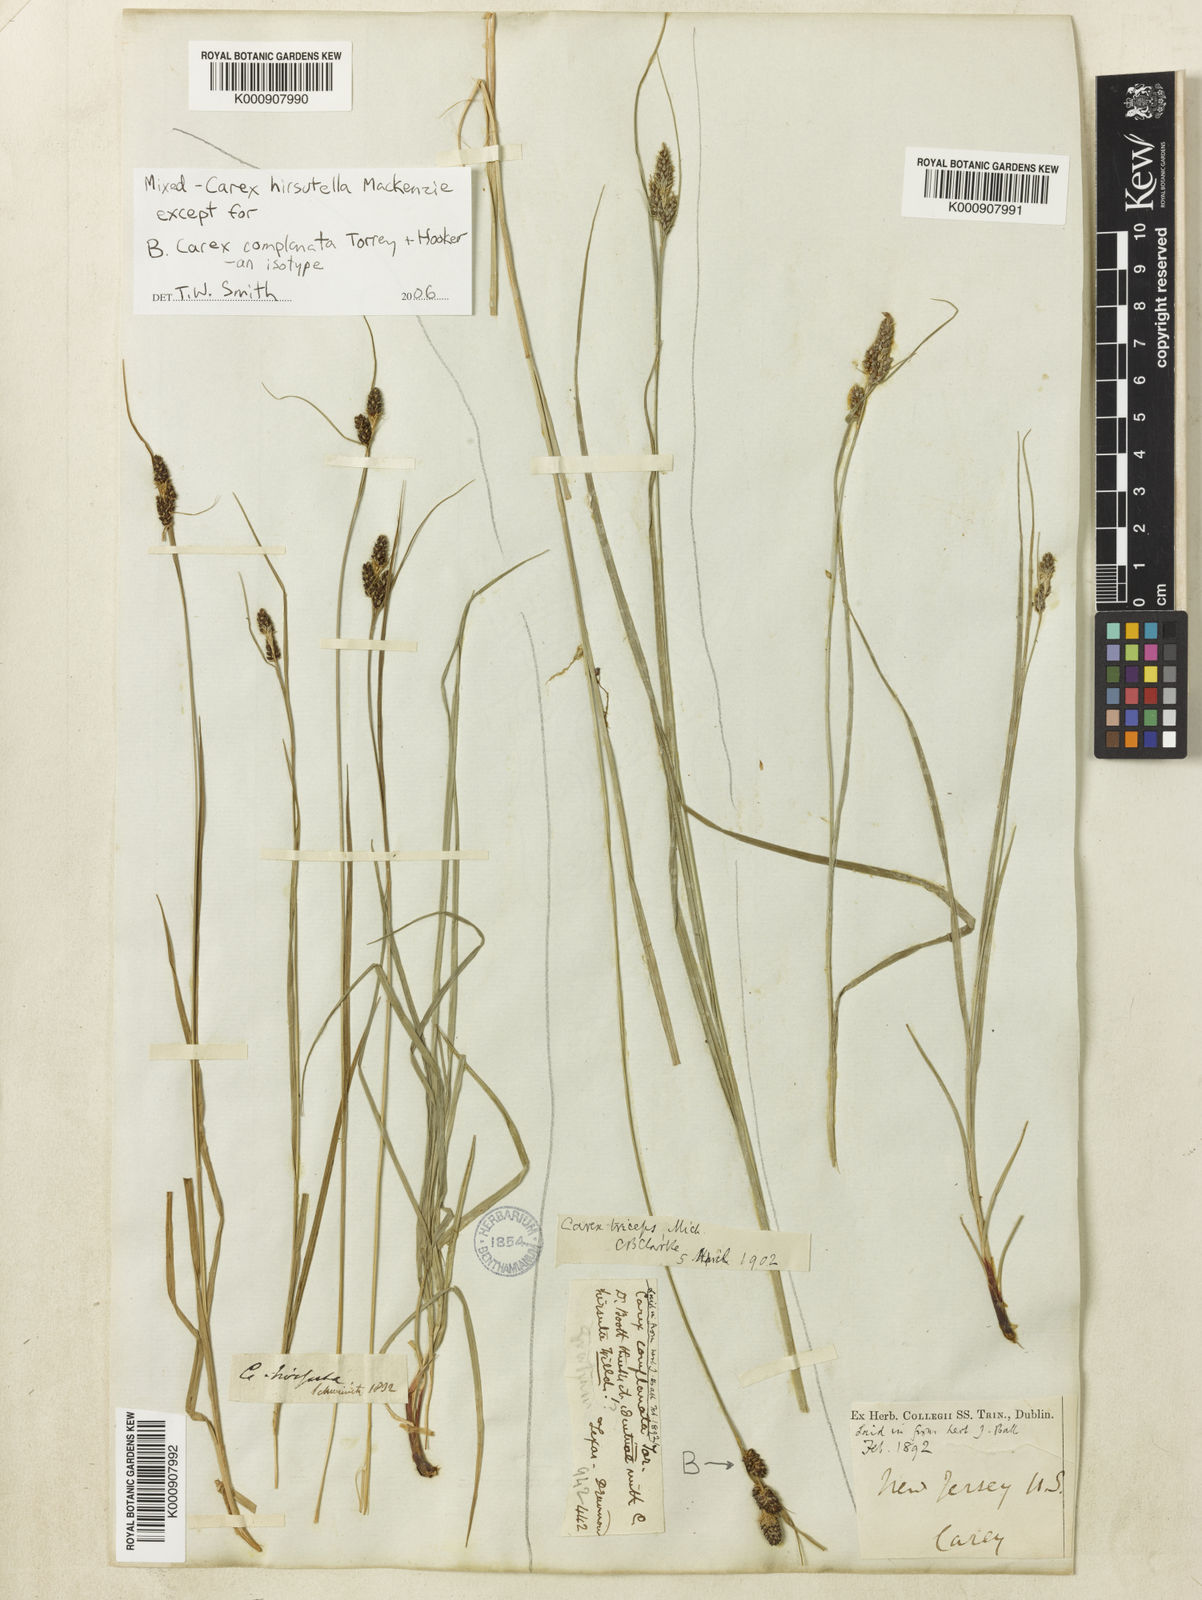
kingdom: Plantae
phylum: Tracheophyta
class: Liliopsida
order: Poales
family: Cyperaceae
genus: Carex
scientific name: Carex complanata
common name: Hirsute sedge
